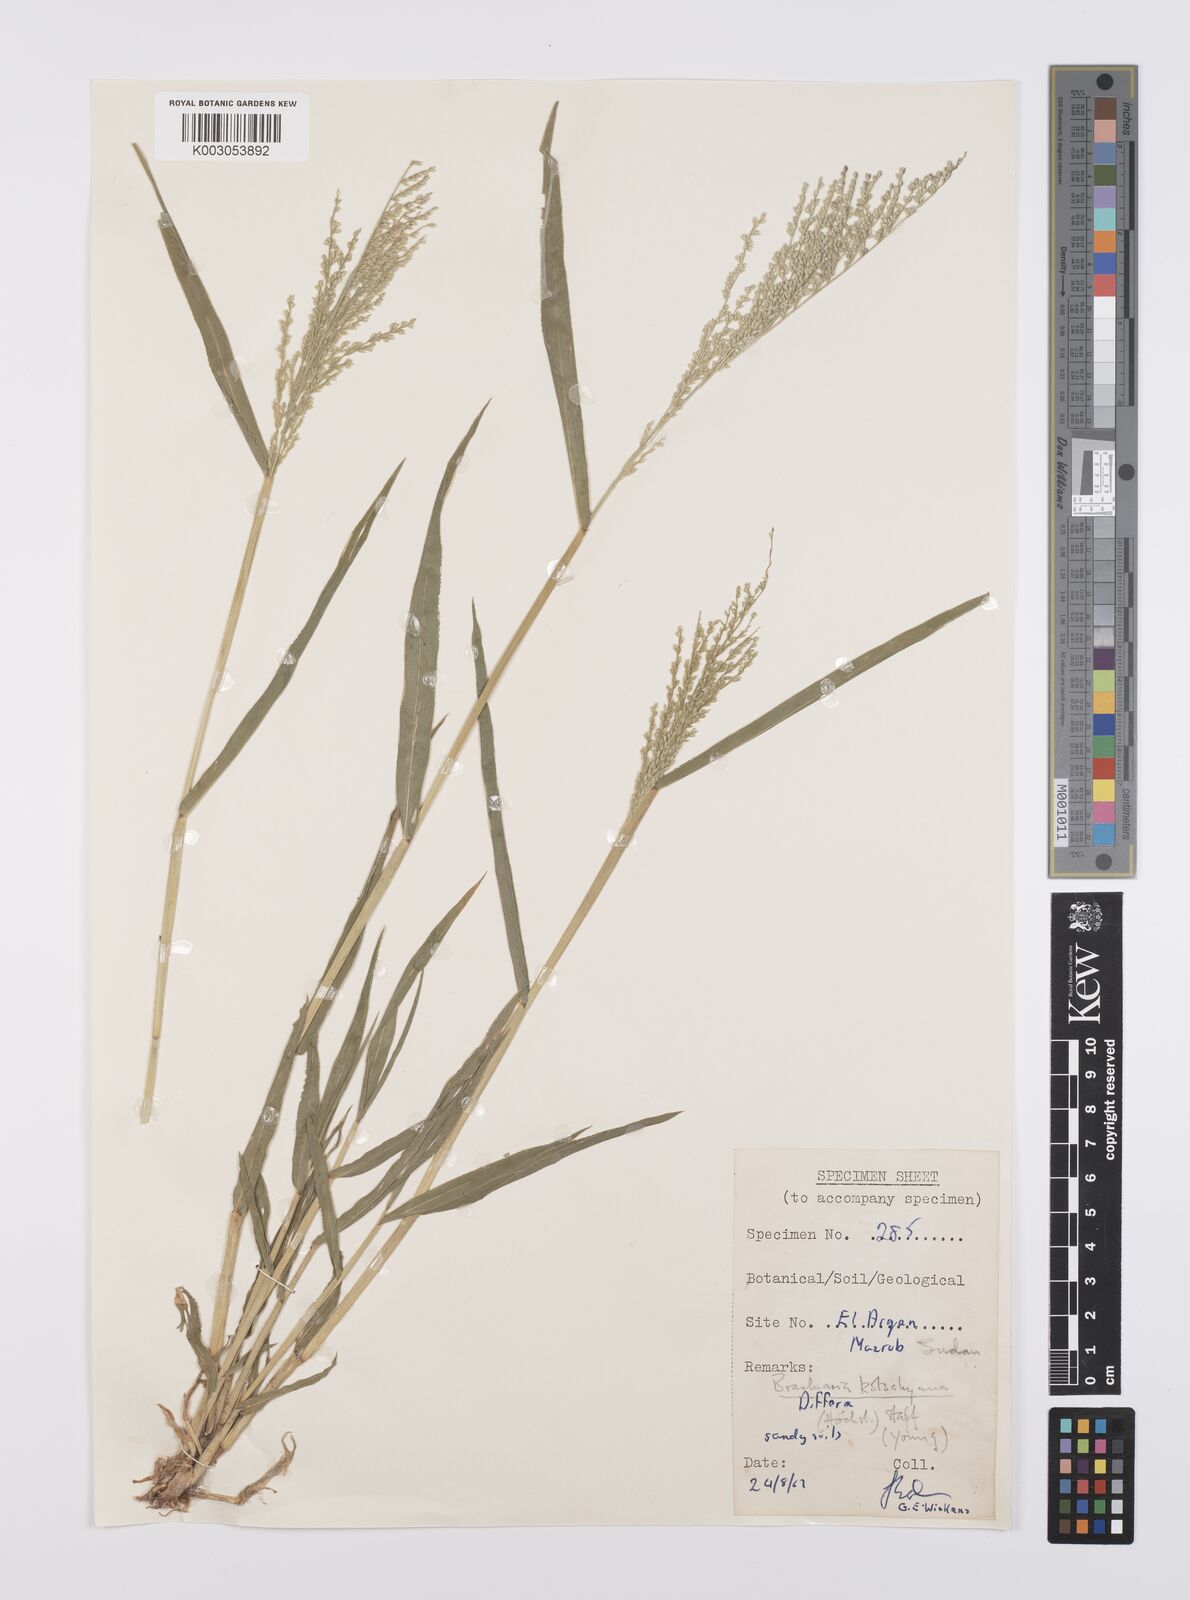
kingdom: Plantae
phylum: Tracheophyta
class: Liliopsida
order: Poales
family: Poaceae
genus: Urochloa
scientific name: Urochloa comata
